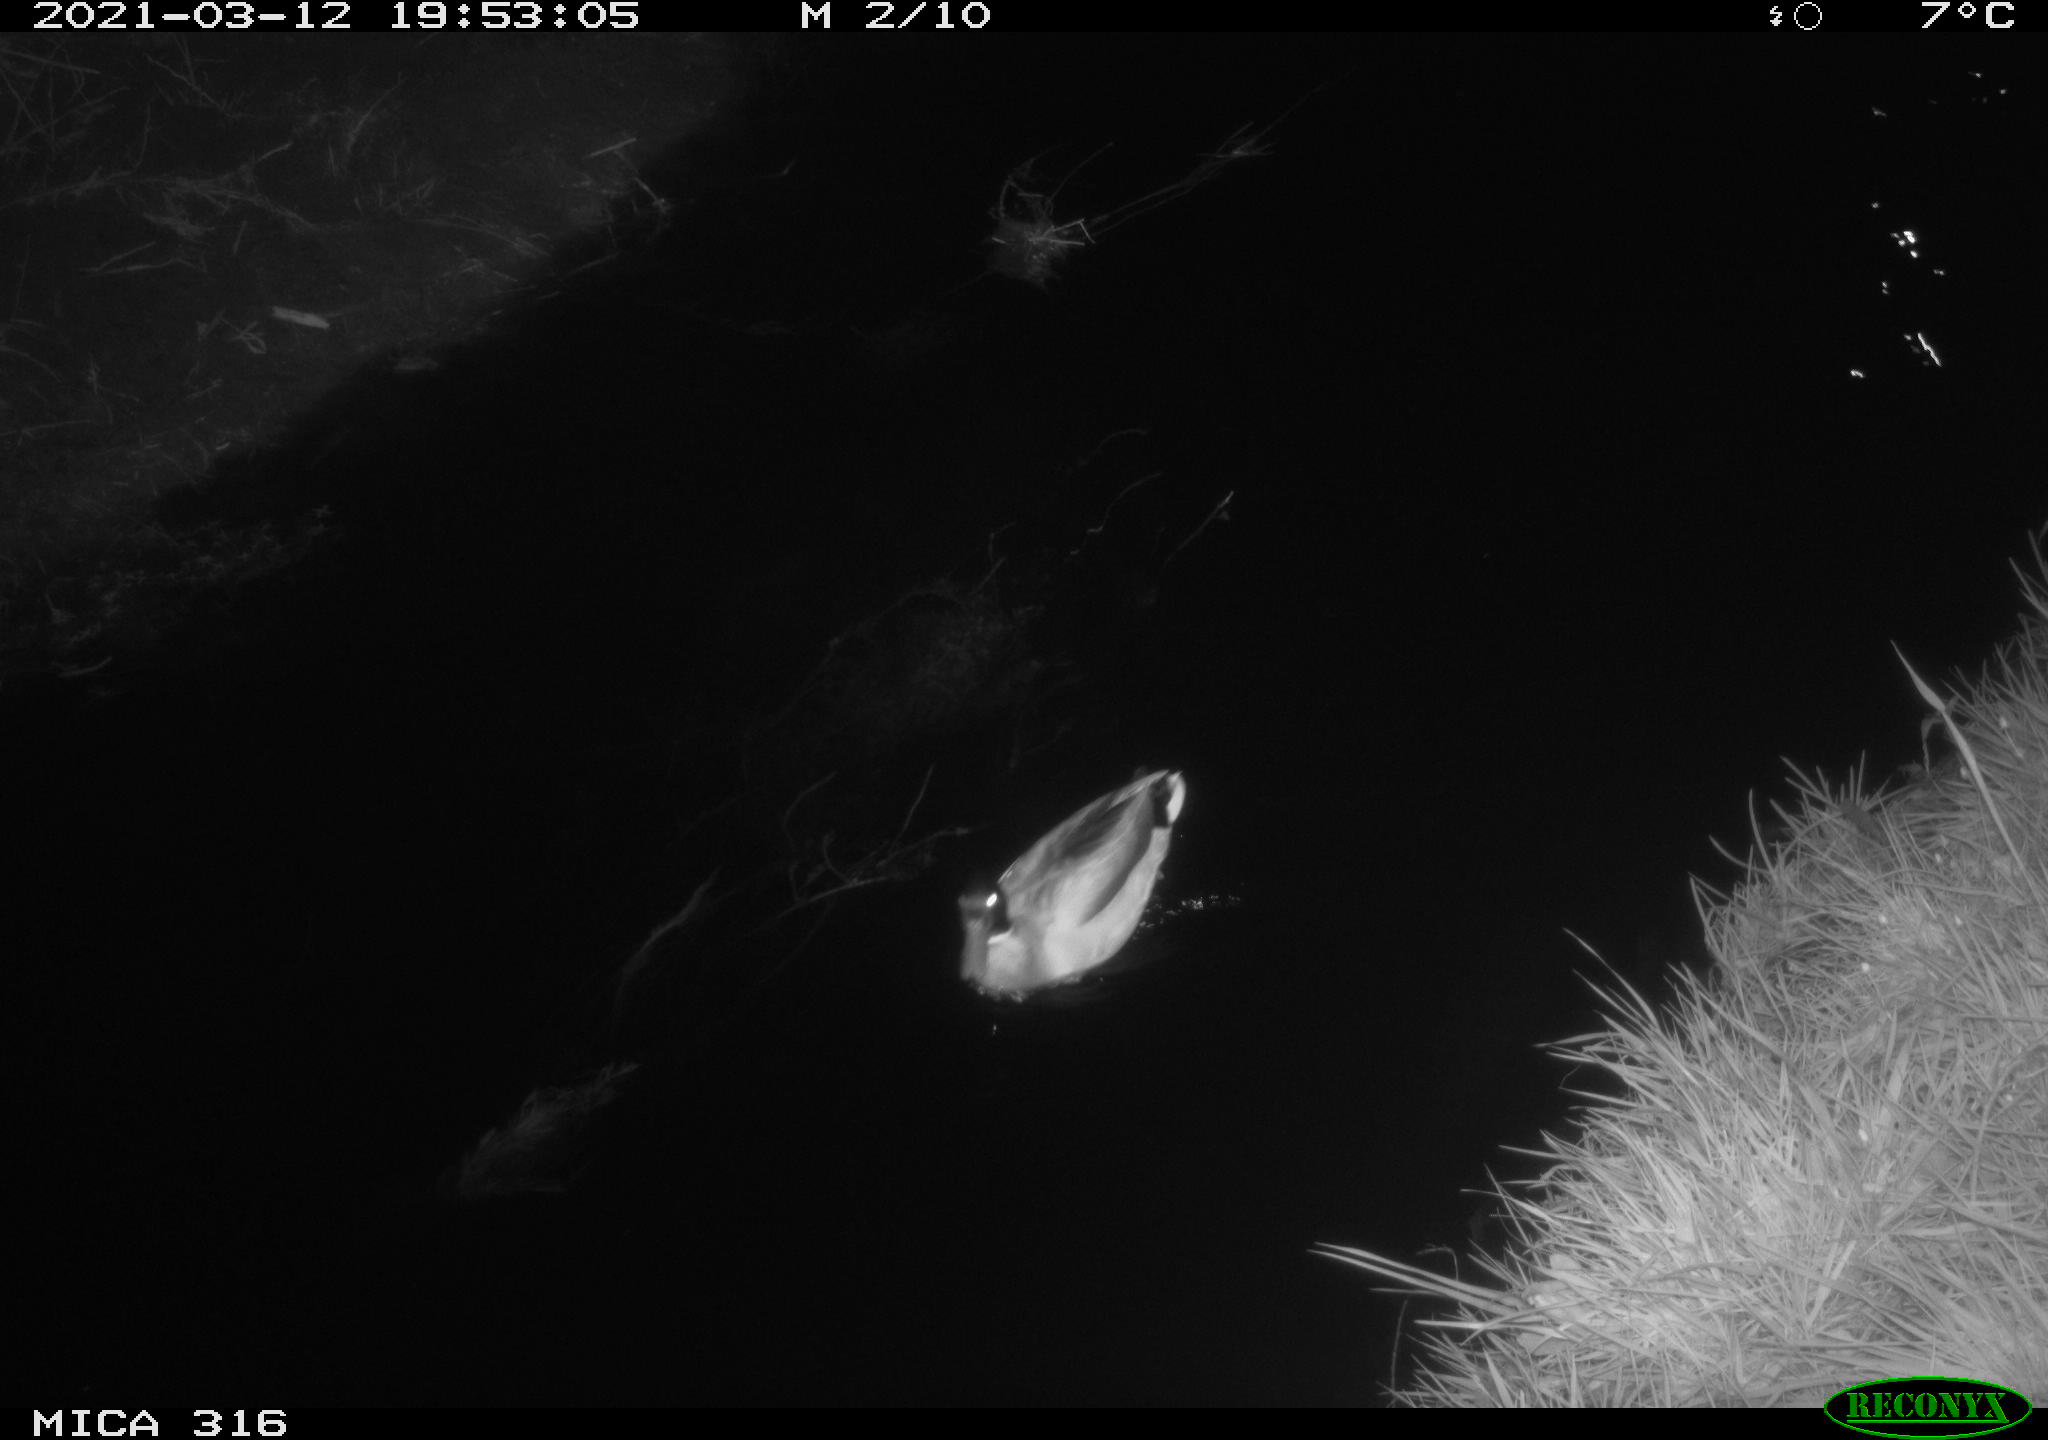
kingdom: Animalia
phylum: Chordata
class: Aves
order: Anseriformes
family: Anatidae
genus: Anas
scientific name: Anas platyrhynchos
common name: Mallard
